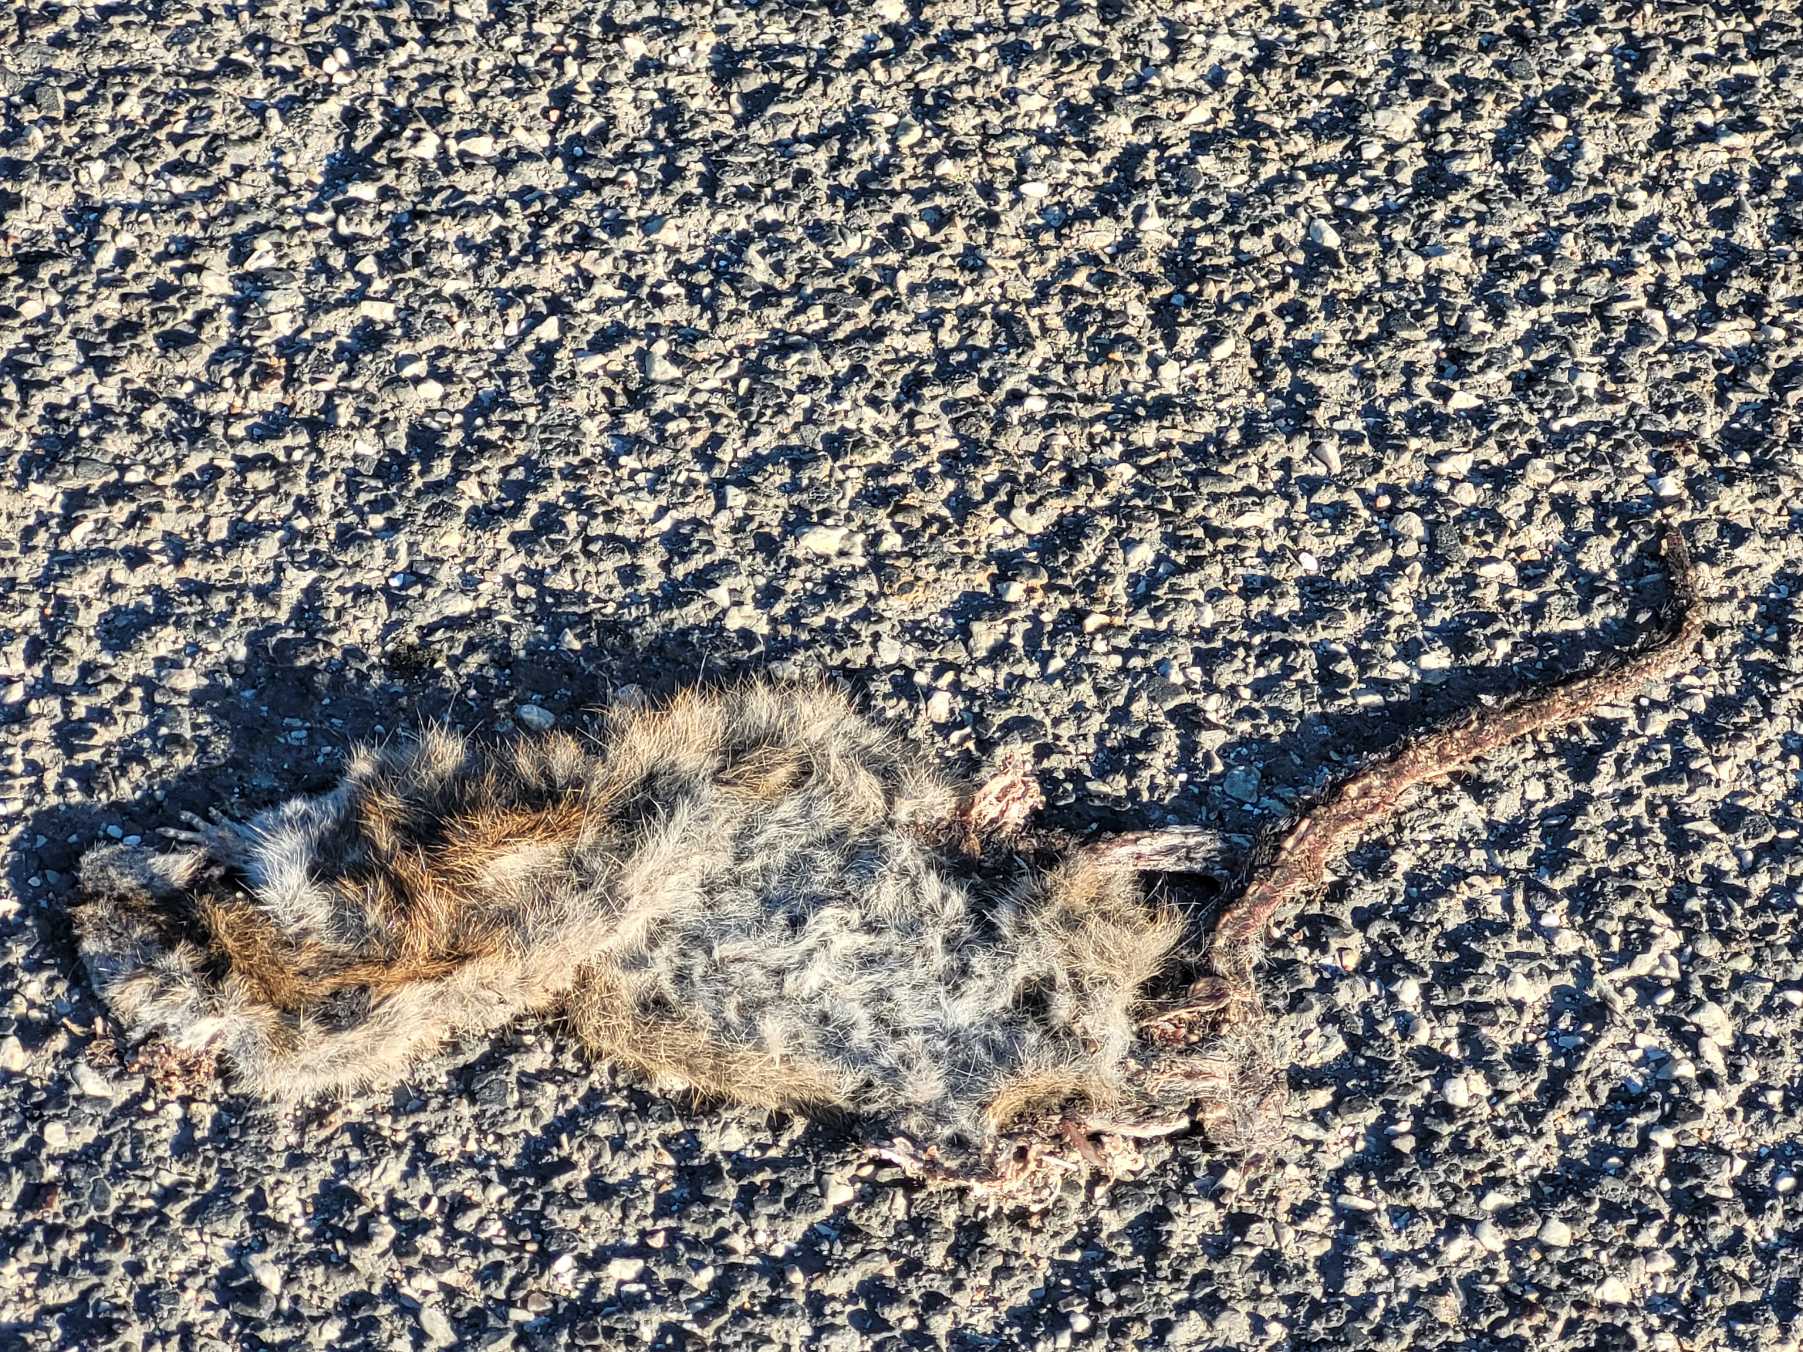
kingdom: Animalia
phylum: Chordata
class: Mammalia
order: Rodentia
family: Muridae
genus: Rattus
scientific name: Rattus norvegicus
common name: Brun rotte
